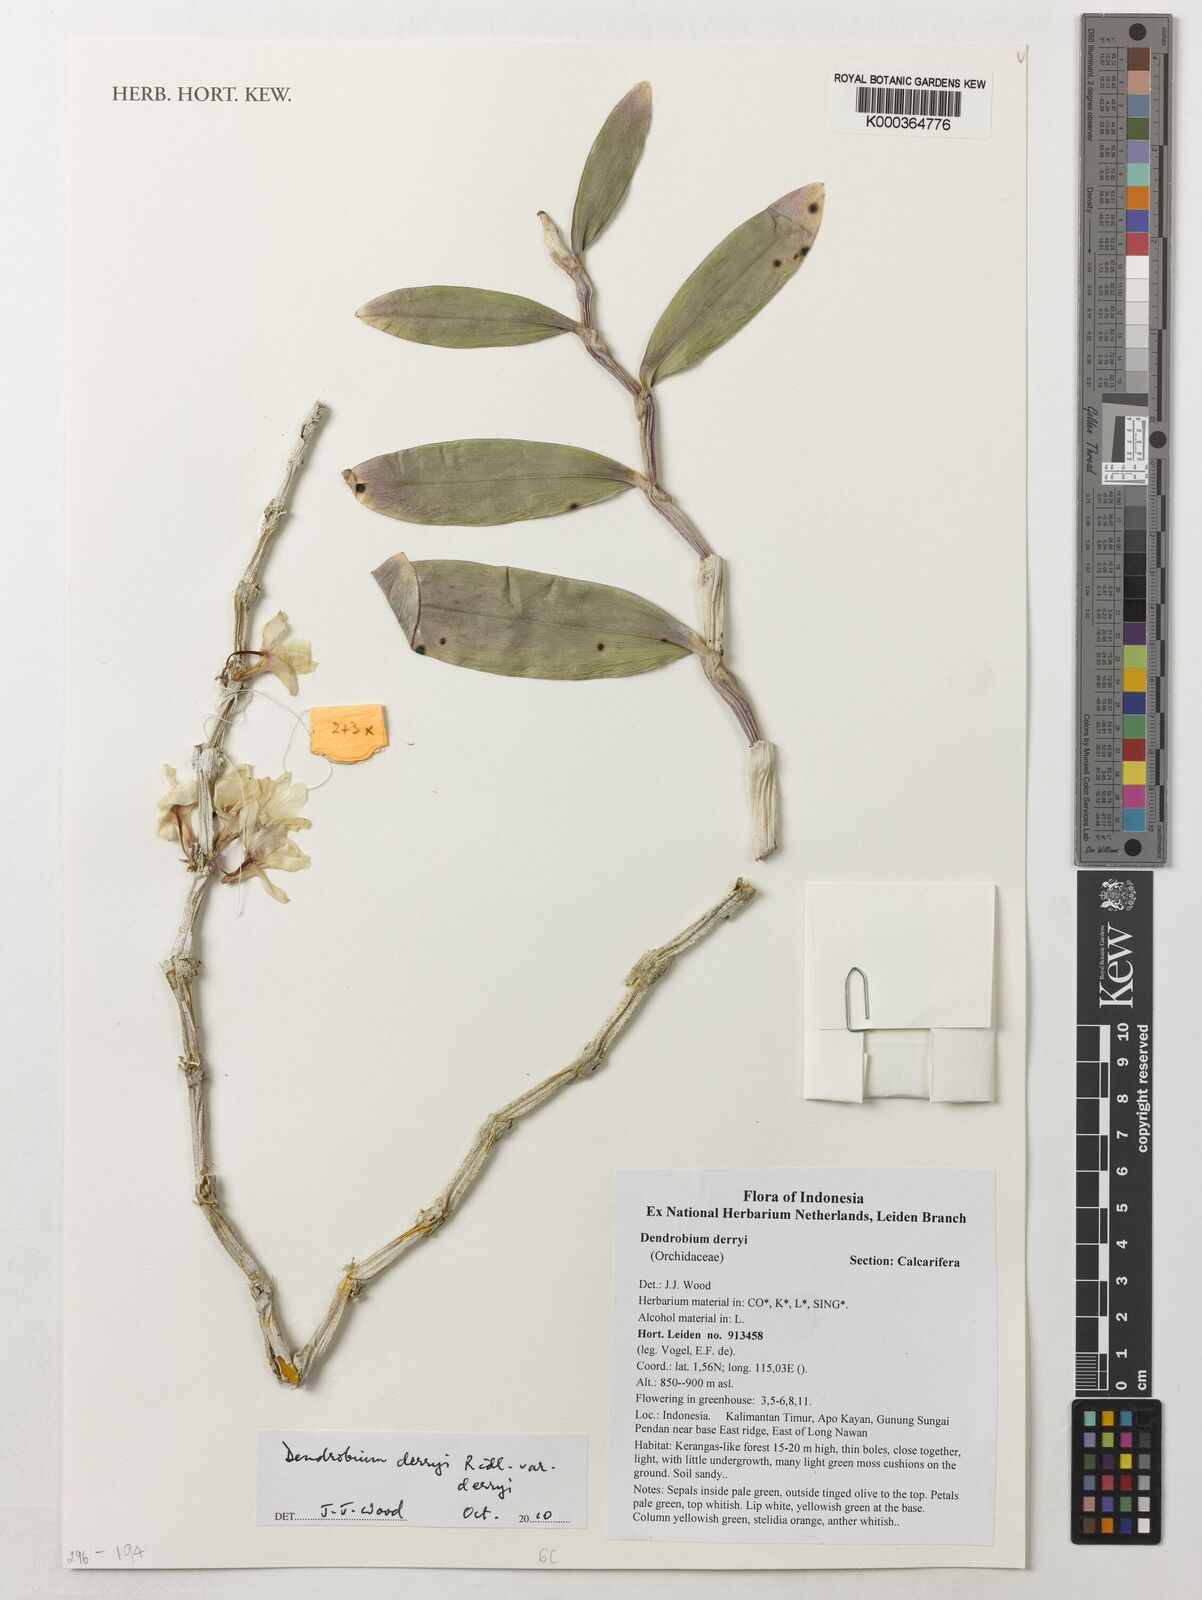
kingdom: Plantae
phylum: Tracheophyta
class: Liliopsida
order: Asparagales
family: Orchidaceae
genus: Dendrobium
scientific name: Dendrobium derryi
